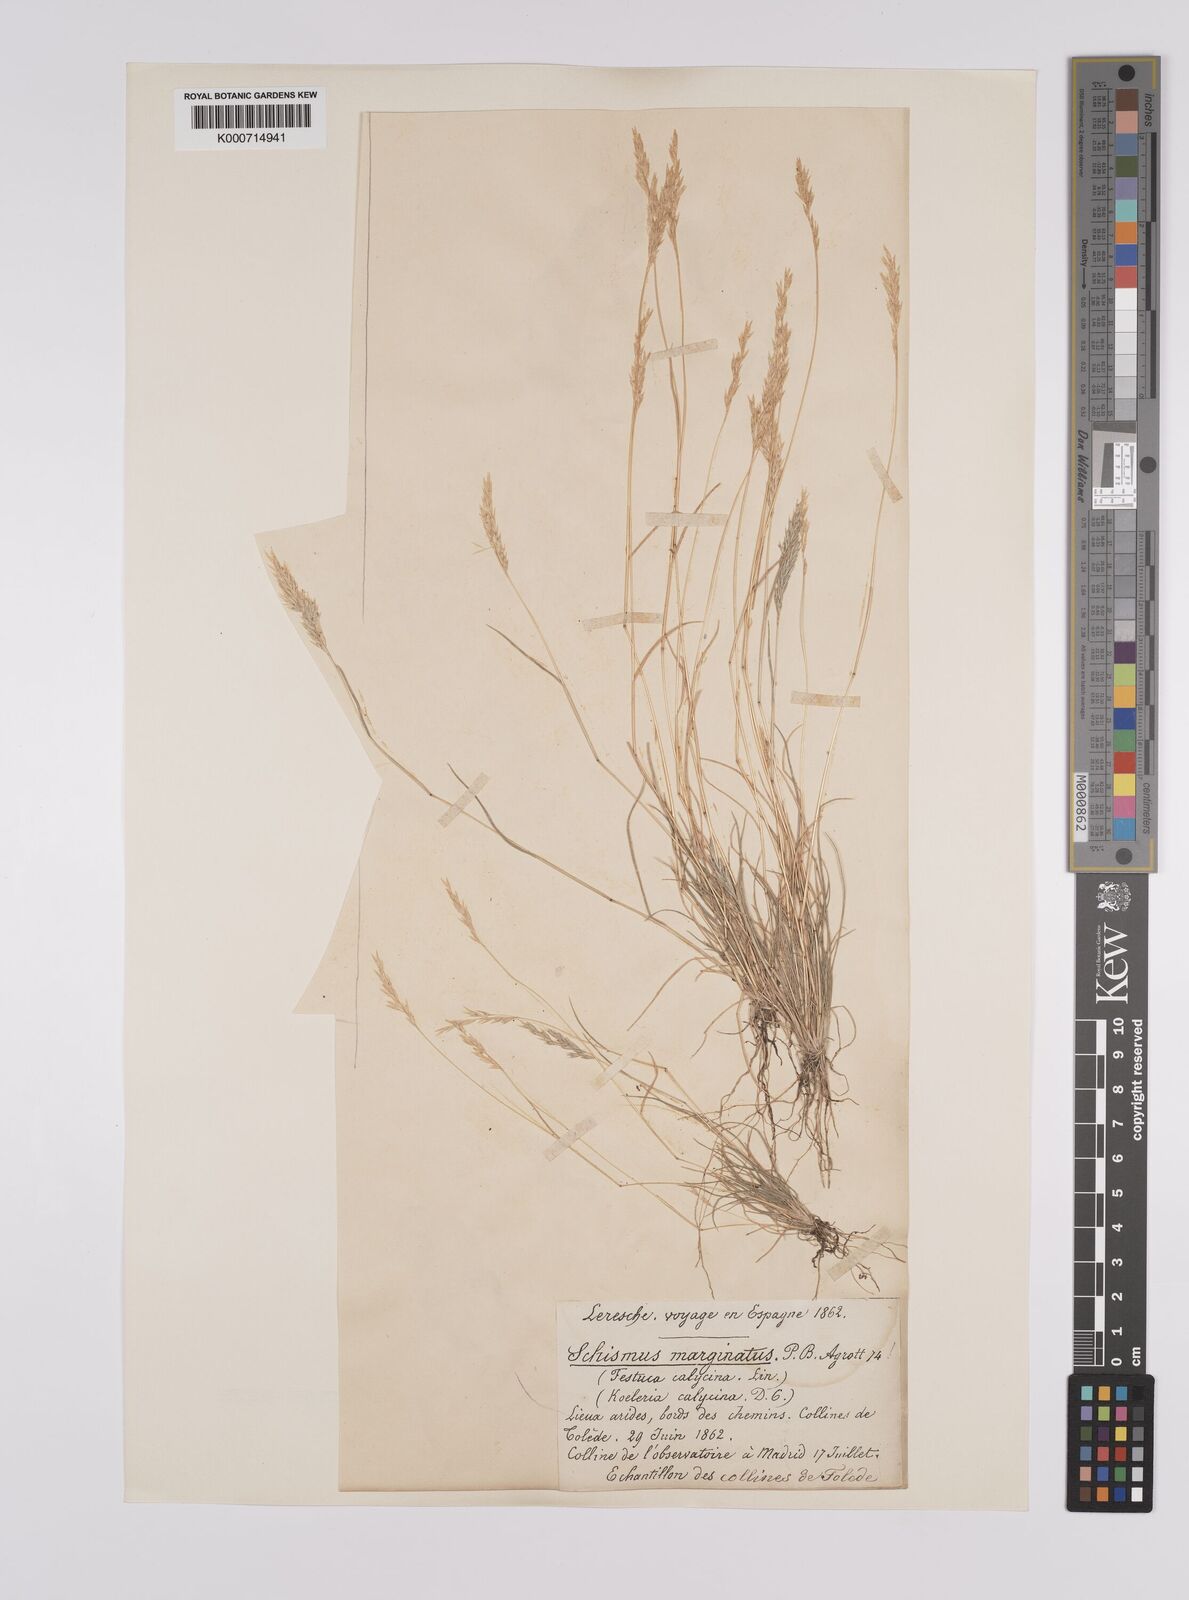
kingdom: Plantae
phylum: Tracheophyta
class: Liliopsida
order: Poales
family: Poaceae
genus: Schismus
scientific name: Schismus barbatus
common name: Kelch-grass
